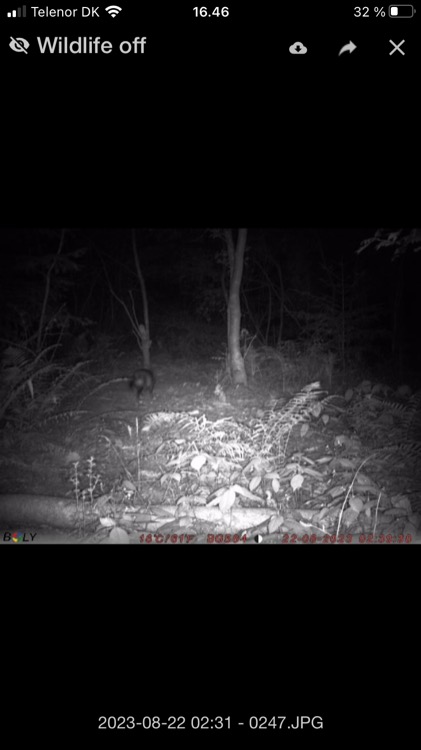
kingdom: Animalia
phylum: Chordata
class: Mammalia
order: Carnivora
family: Canidae
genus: Nyctereutes
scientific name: Nyctereutes procyonoides
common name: Mårhund
